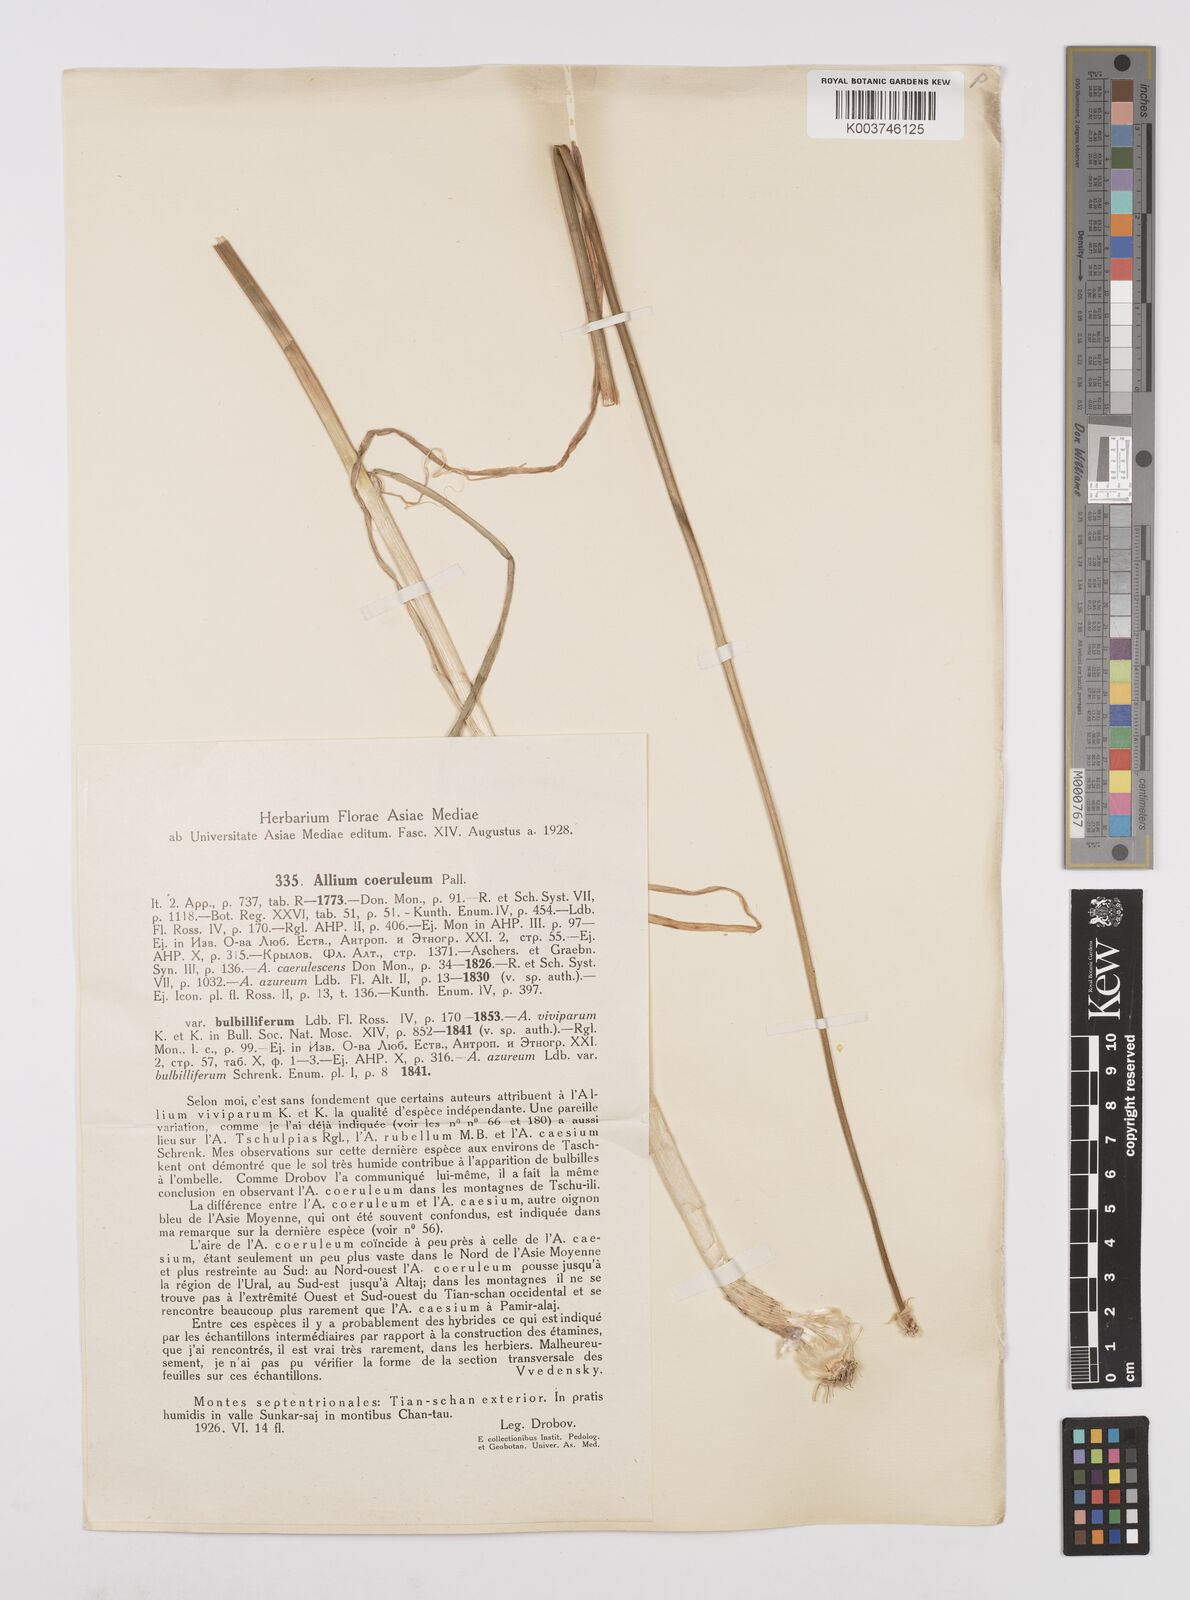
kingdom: Plantae
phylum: Tracheophyta
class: Liliopsida
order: Asparagales
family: Amaryllidaceae
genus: Allium
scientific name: Allium caeruleum
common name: Blue-of-the-heavens
